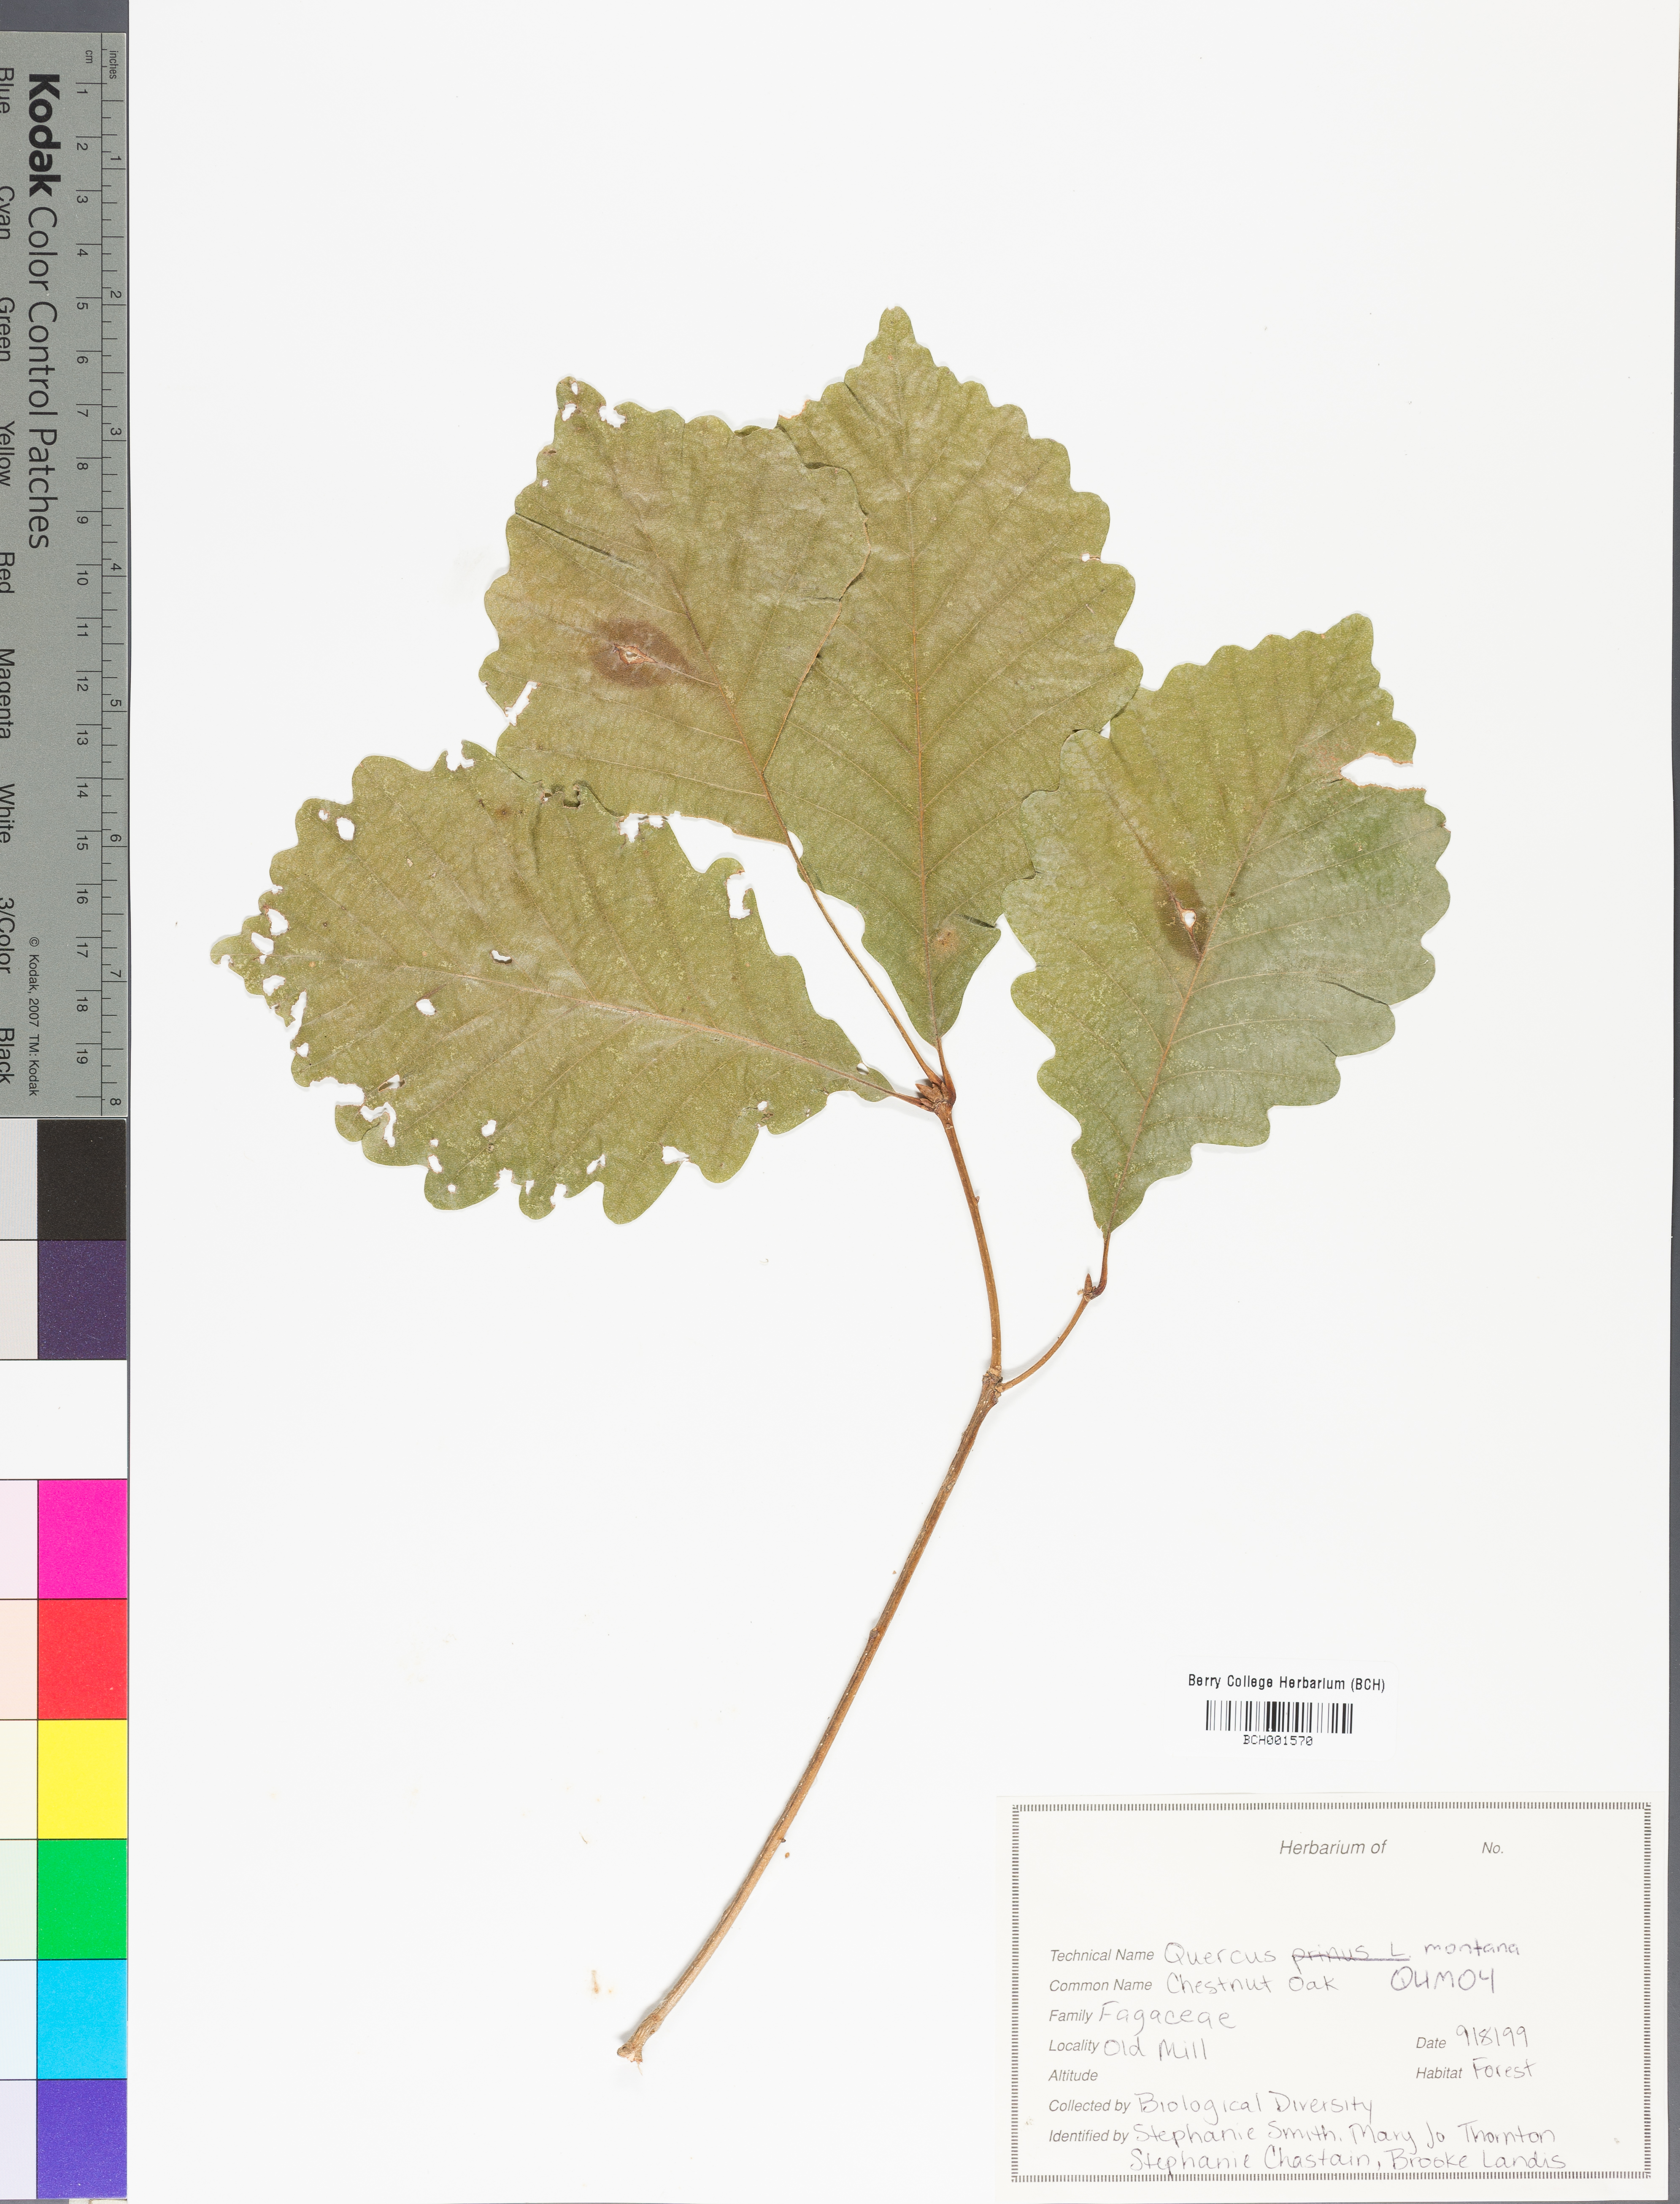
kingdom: Plantae
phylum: Tracheophyta
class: Magnoliopsida
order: Fagales
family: Fagaceae
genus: Quercus
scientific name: Quercus montana
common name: Chestnut oak
